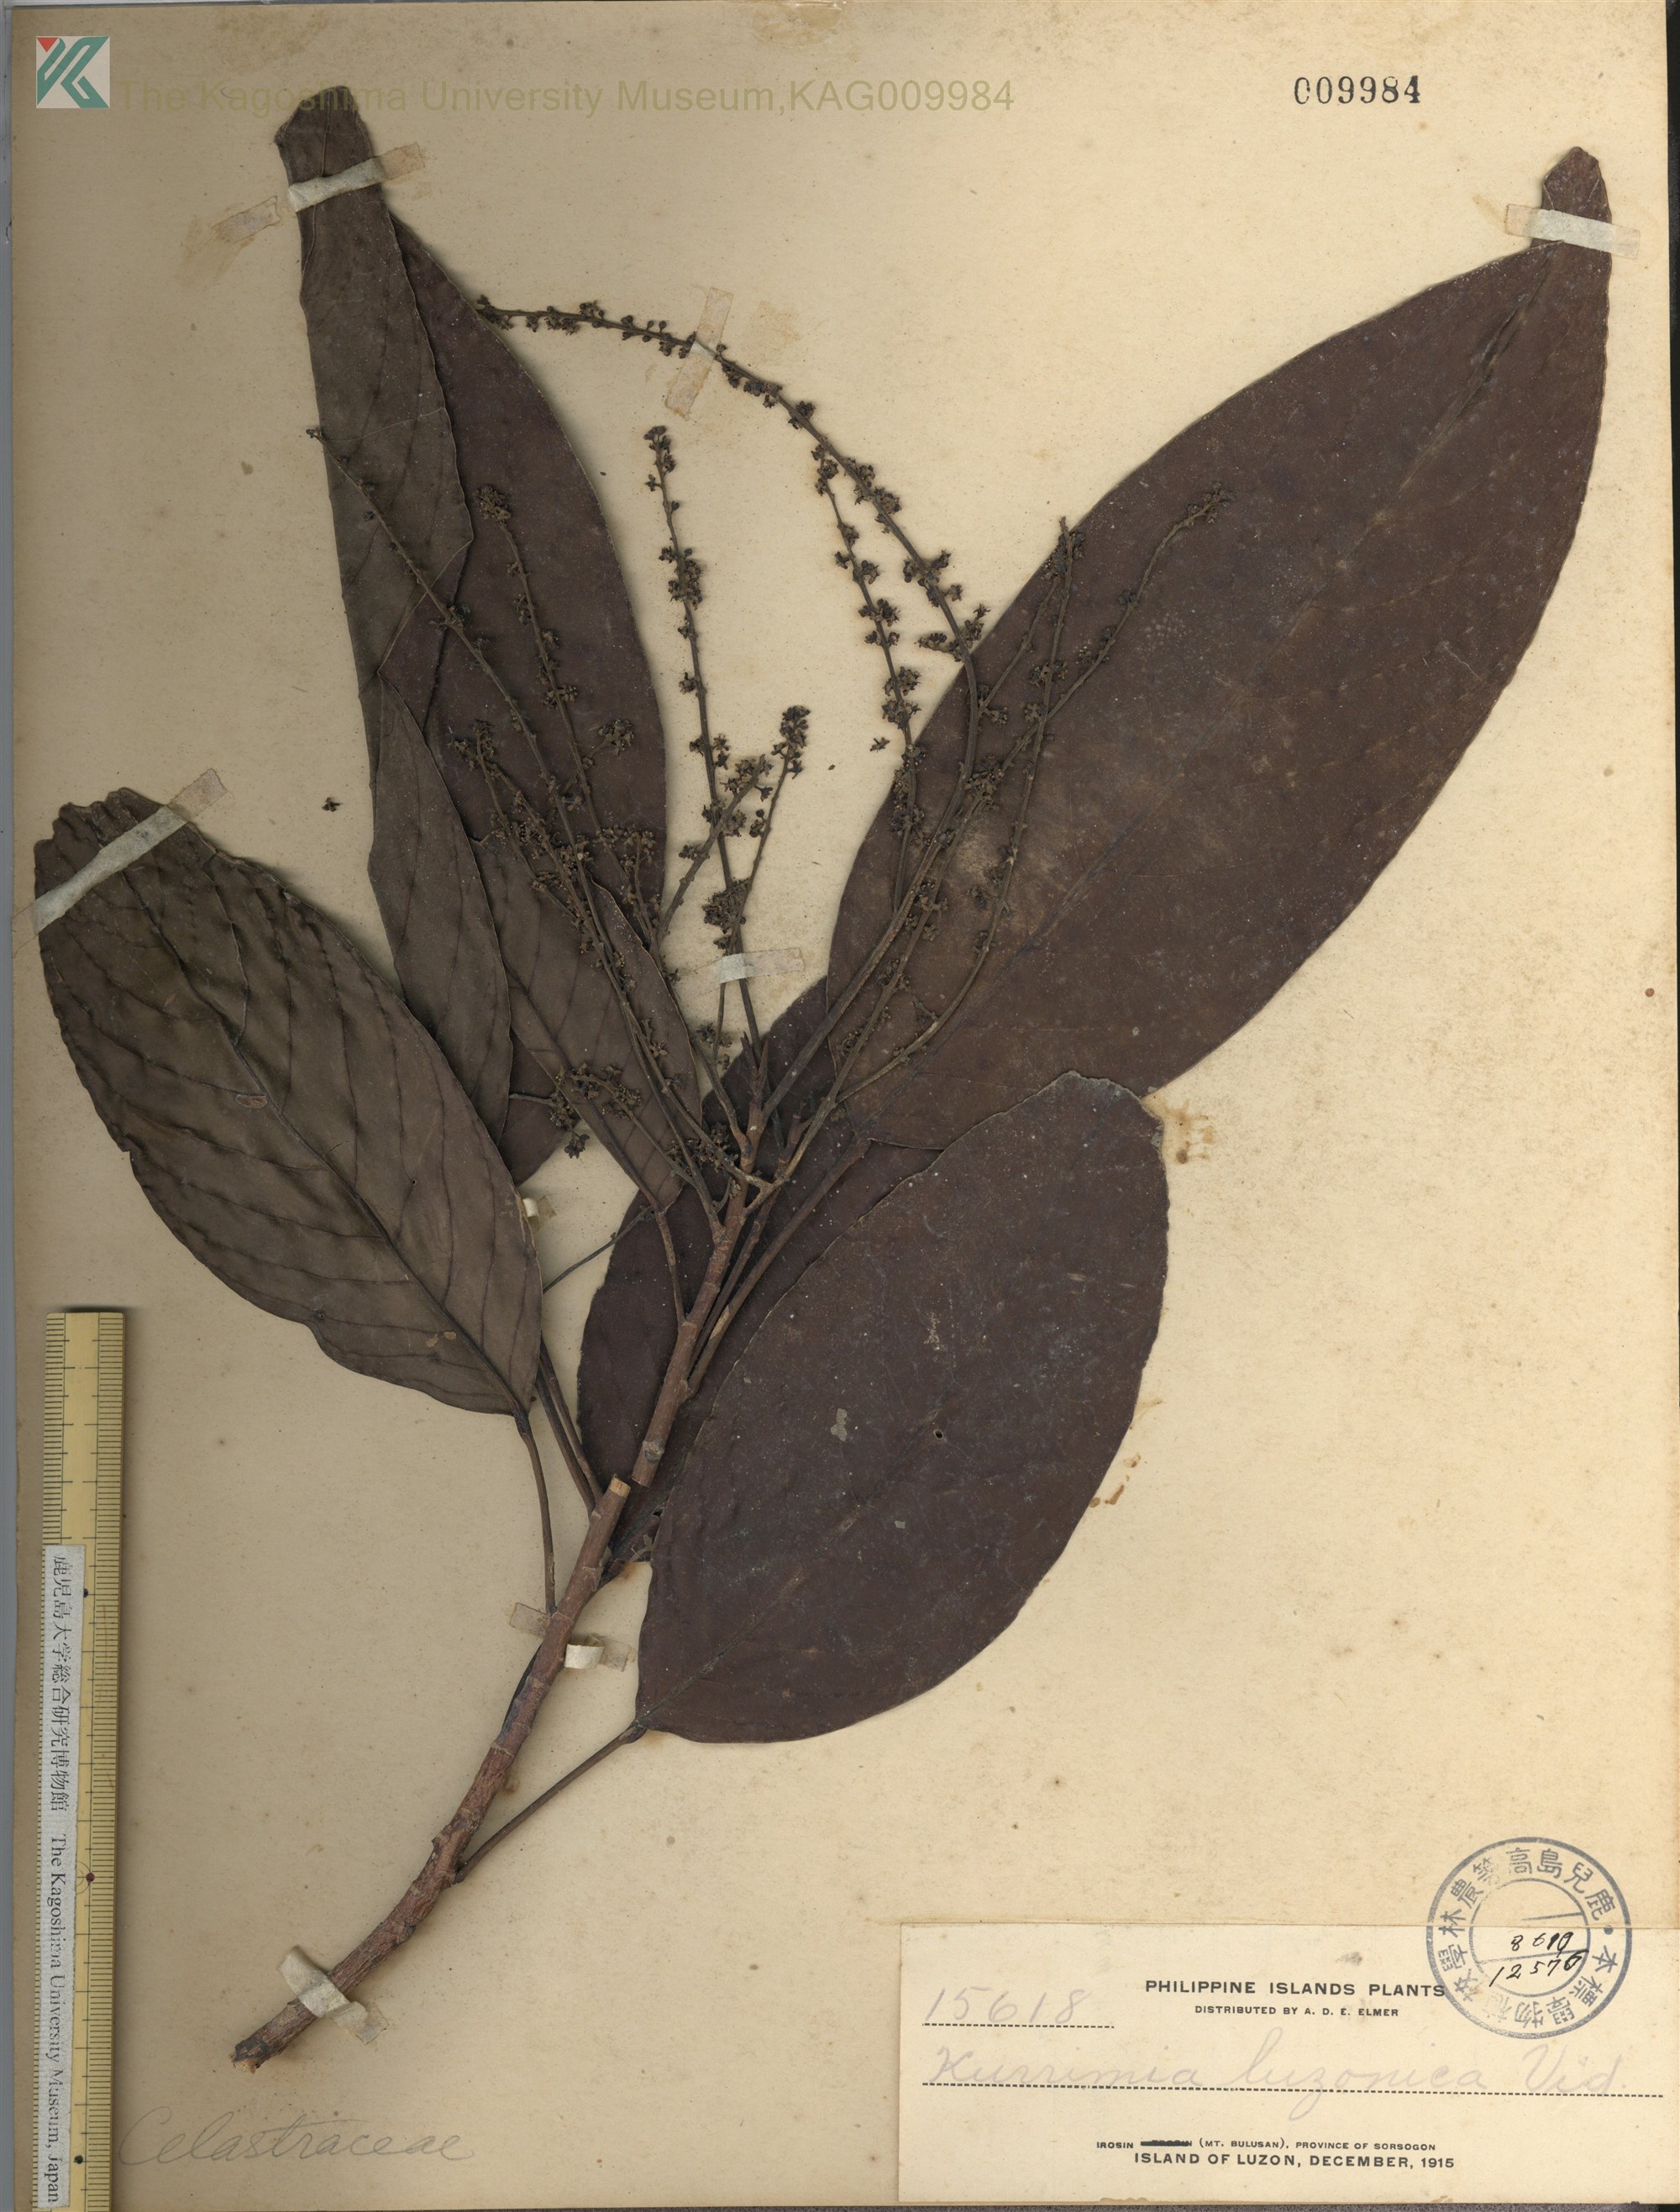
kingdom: Plantae
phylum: Tracheophyta
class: Magnoliopsida
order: Saxifragales
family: Iteaceae
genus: Itea
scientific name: Itea Kurrimia luzonica
